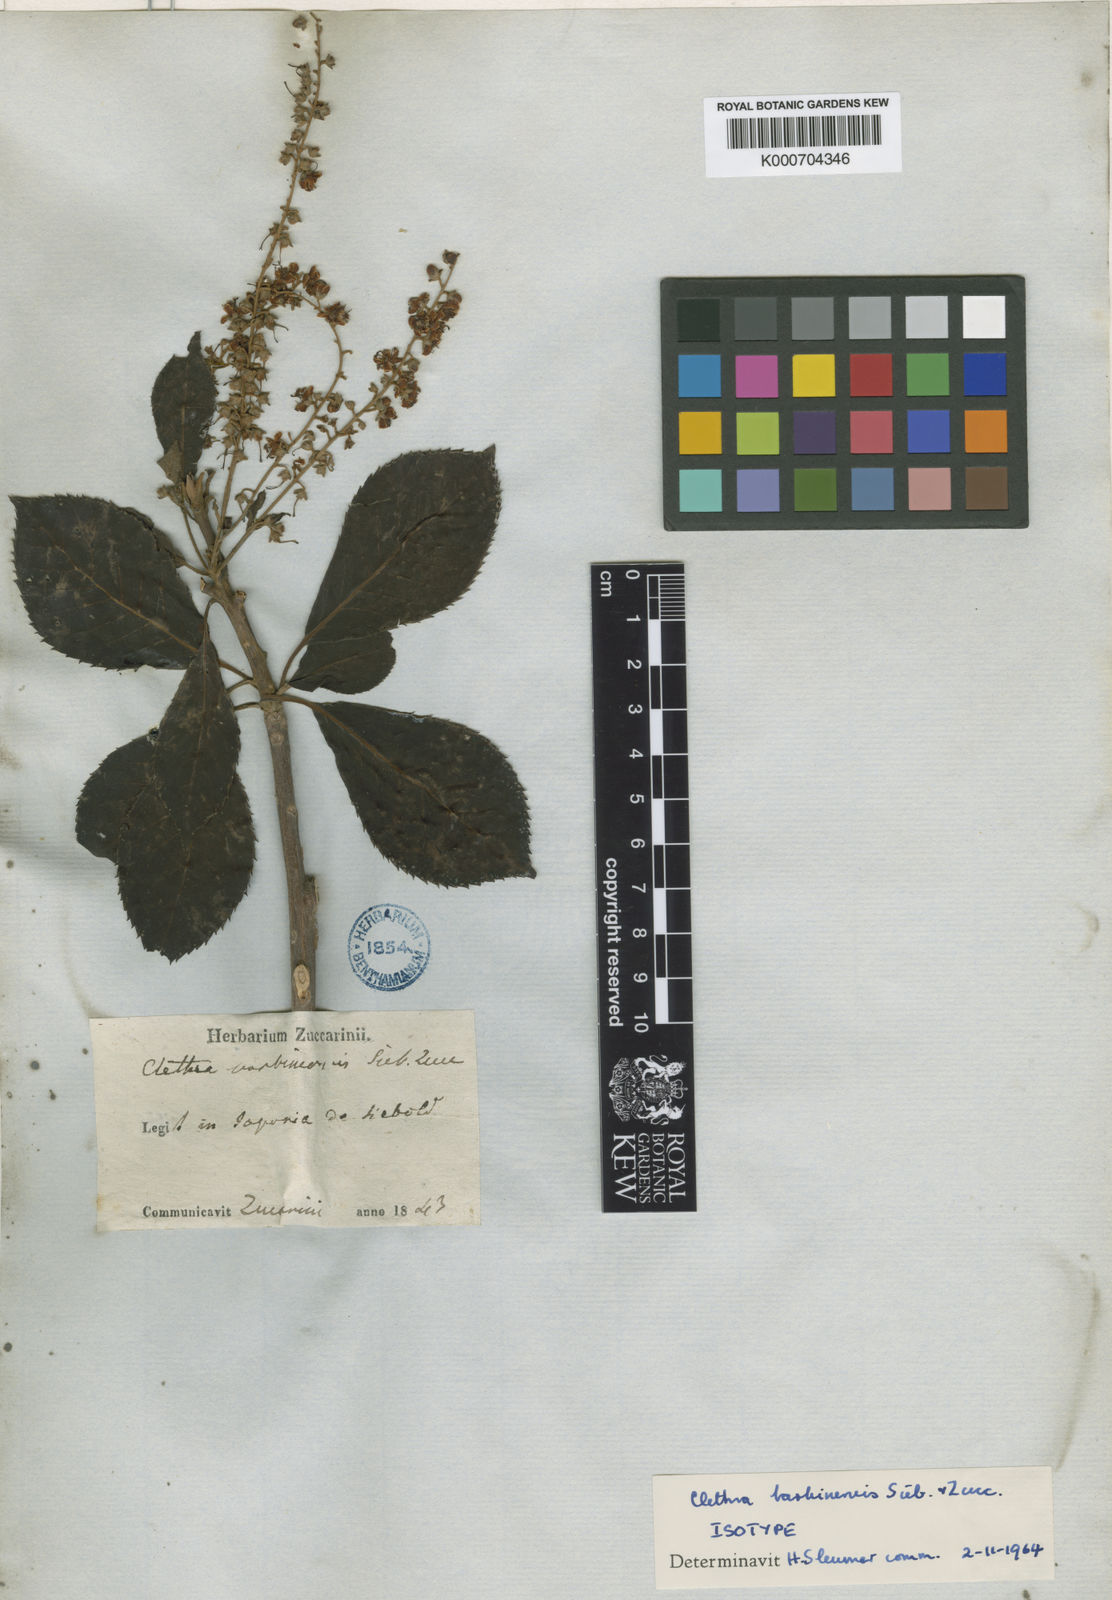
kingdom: Plantae
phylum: Tracheophyta
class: Magnoliopsida
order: Ericales
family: Clethraceae
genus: Clethra
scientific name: Clethra barbinervis
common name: Japanese clethra
